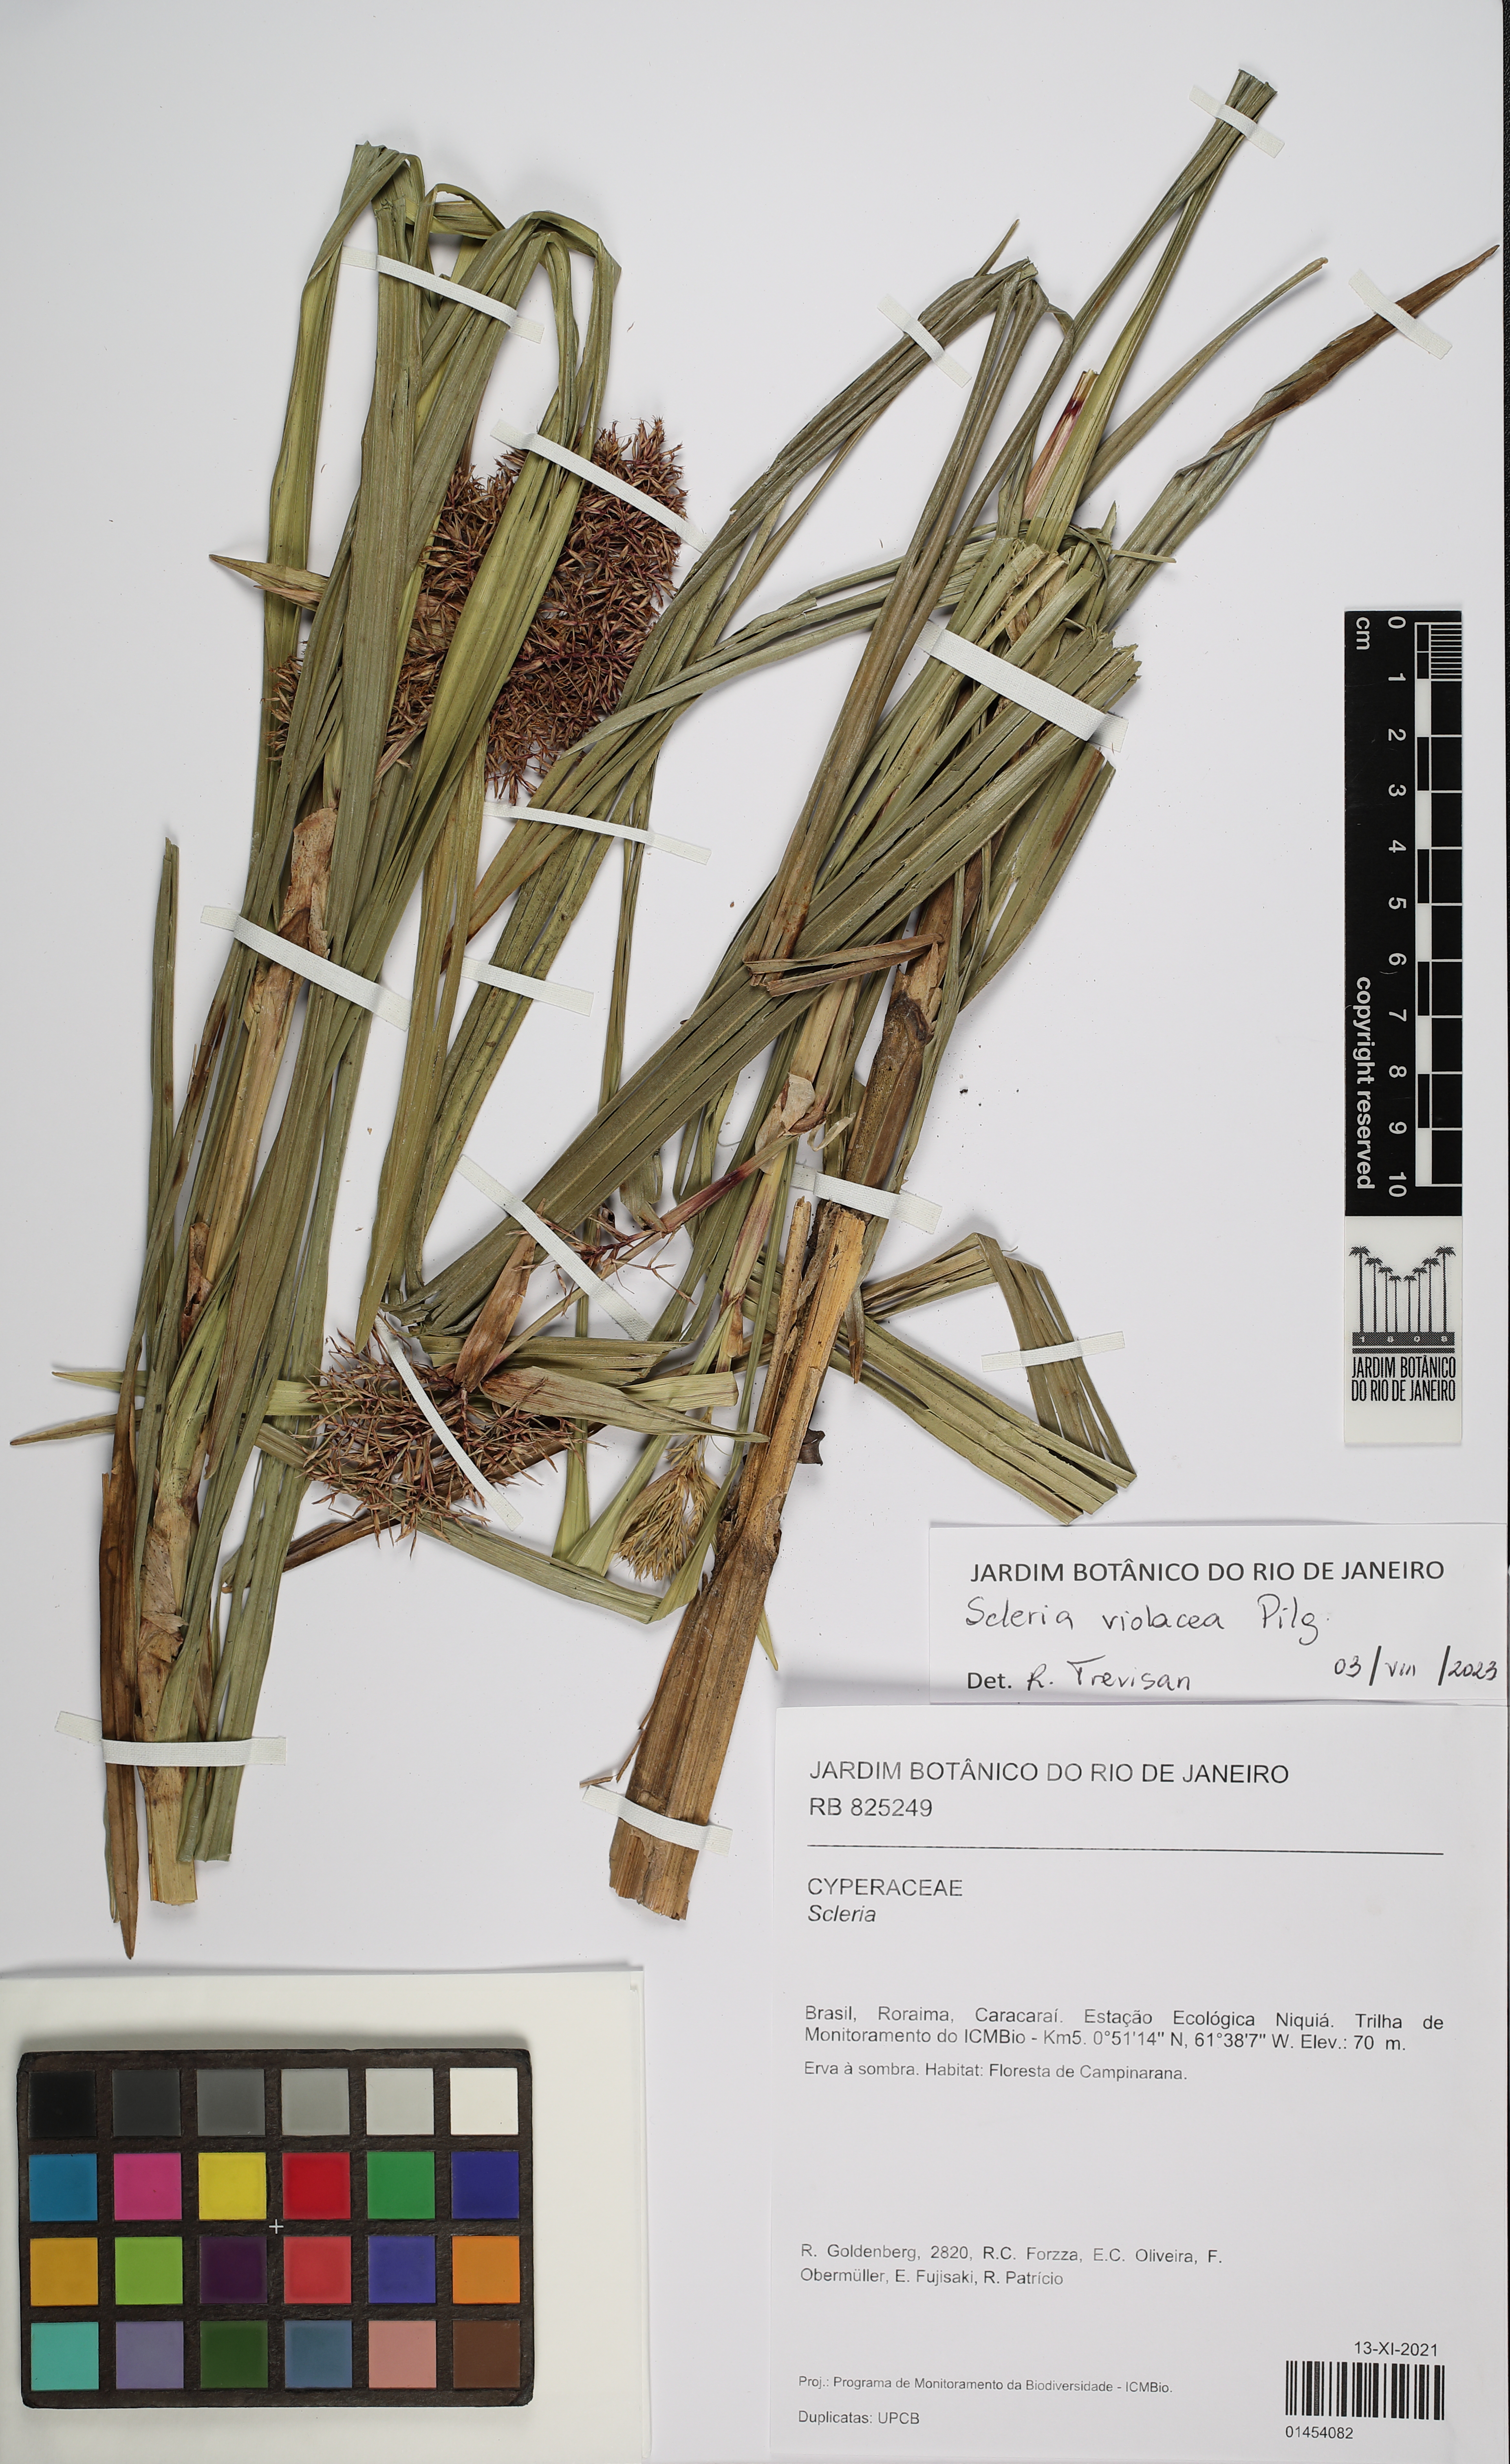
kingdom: Plantae
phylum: Tracheophyta
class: Liliopsida
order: Poales
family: Cyperaceae
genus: Scleria
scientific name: Scleria violacea
